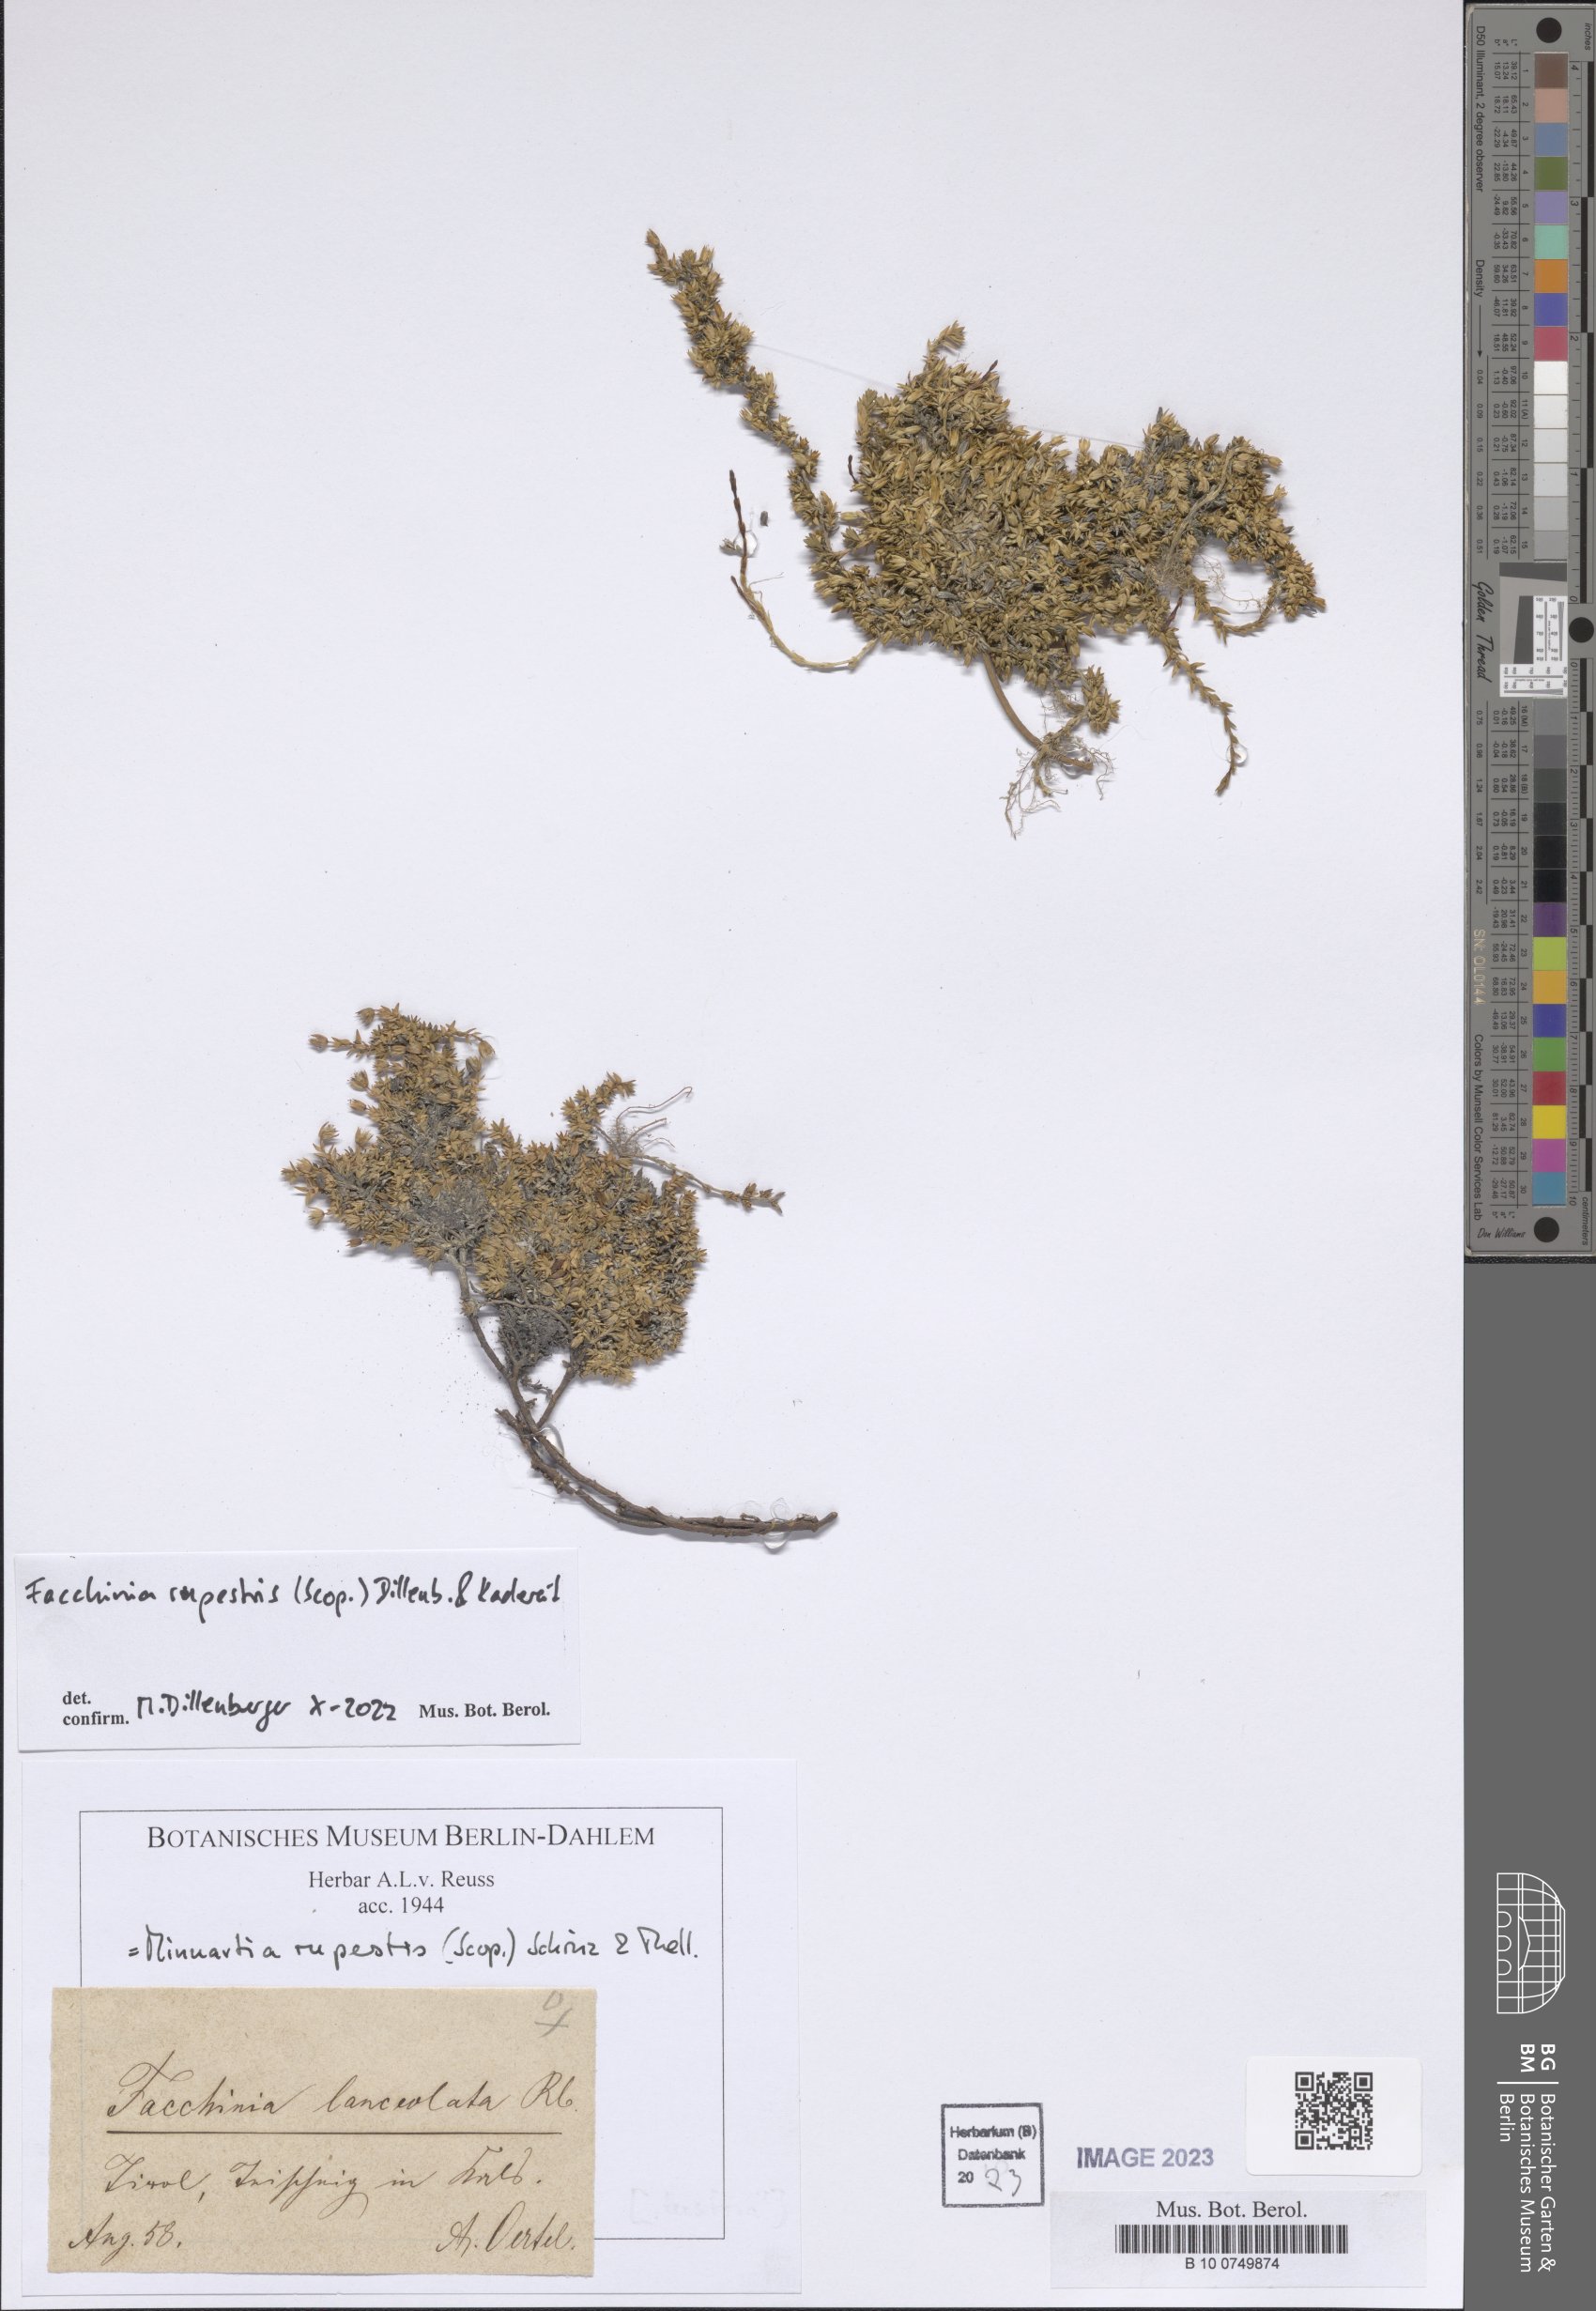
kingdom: Plantae
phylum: Tracheophyta
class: Magnoliopsida
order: Caryophyllales
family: Caryophyllaceae
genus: Facchinia
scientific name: Facchinia rupestris
